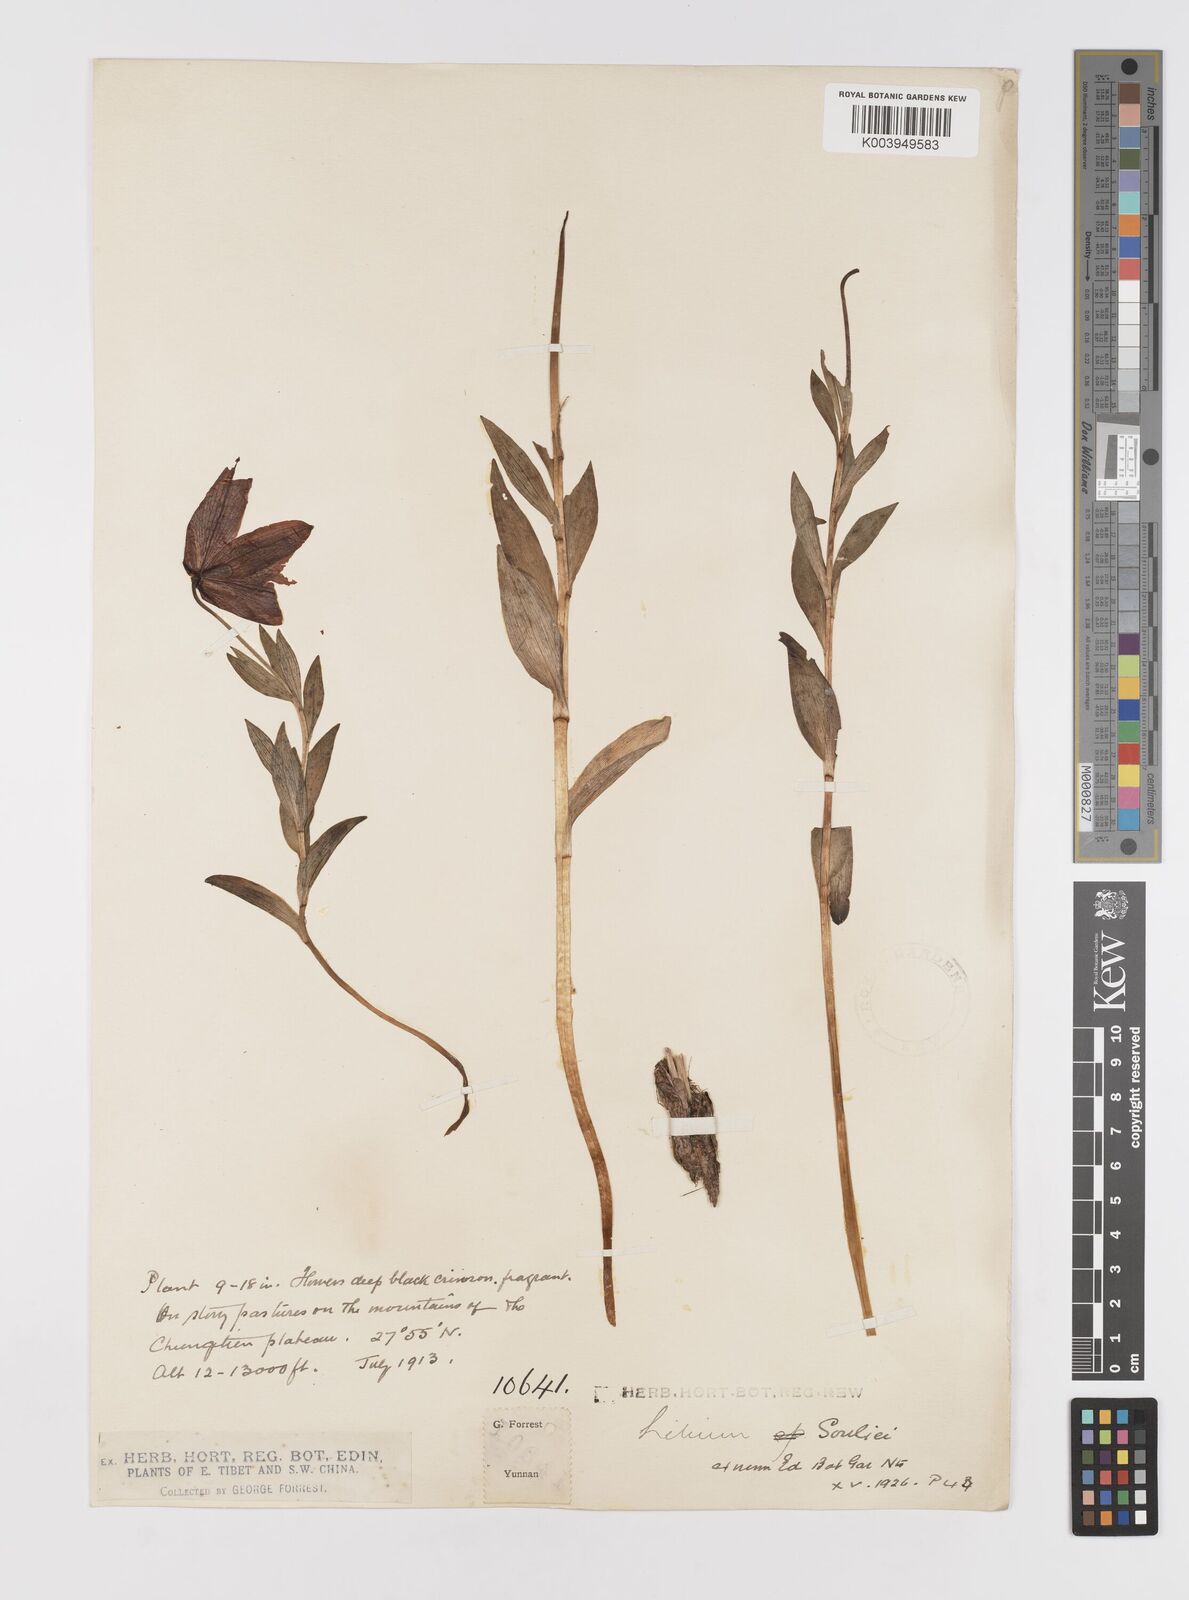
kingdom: Plantae
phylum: Tracheophyta
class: Liliopsida
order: Liliales
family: Liliaceae
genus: Lilium
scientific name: Lilium souliei
